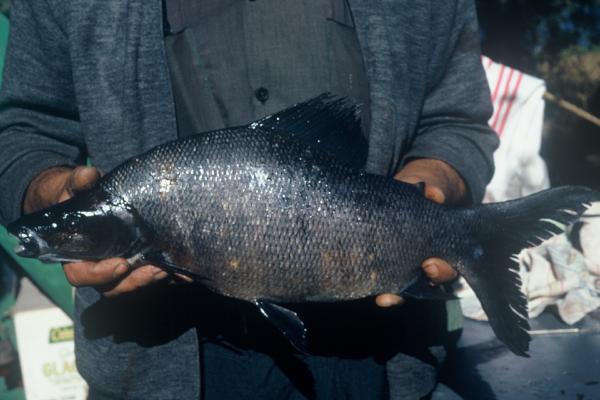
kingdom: Animalia
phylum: Chordata
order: Characiformes
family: Distichodontidae
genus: Distichodus
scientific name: Distichodus mossambicus
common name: Nkupe
